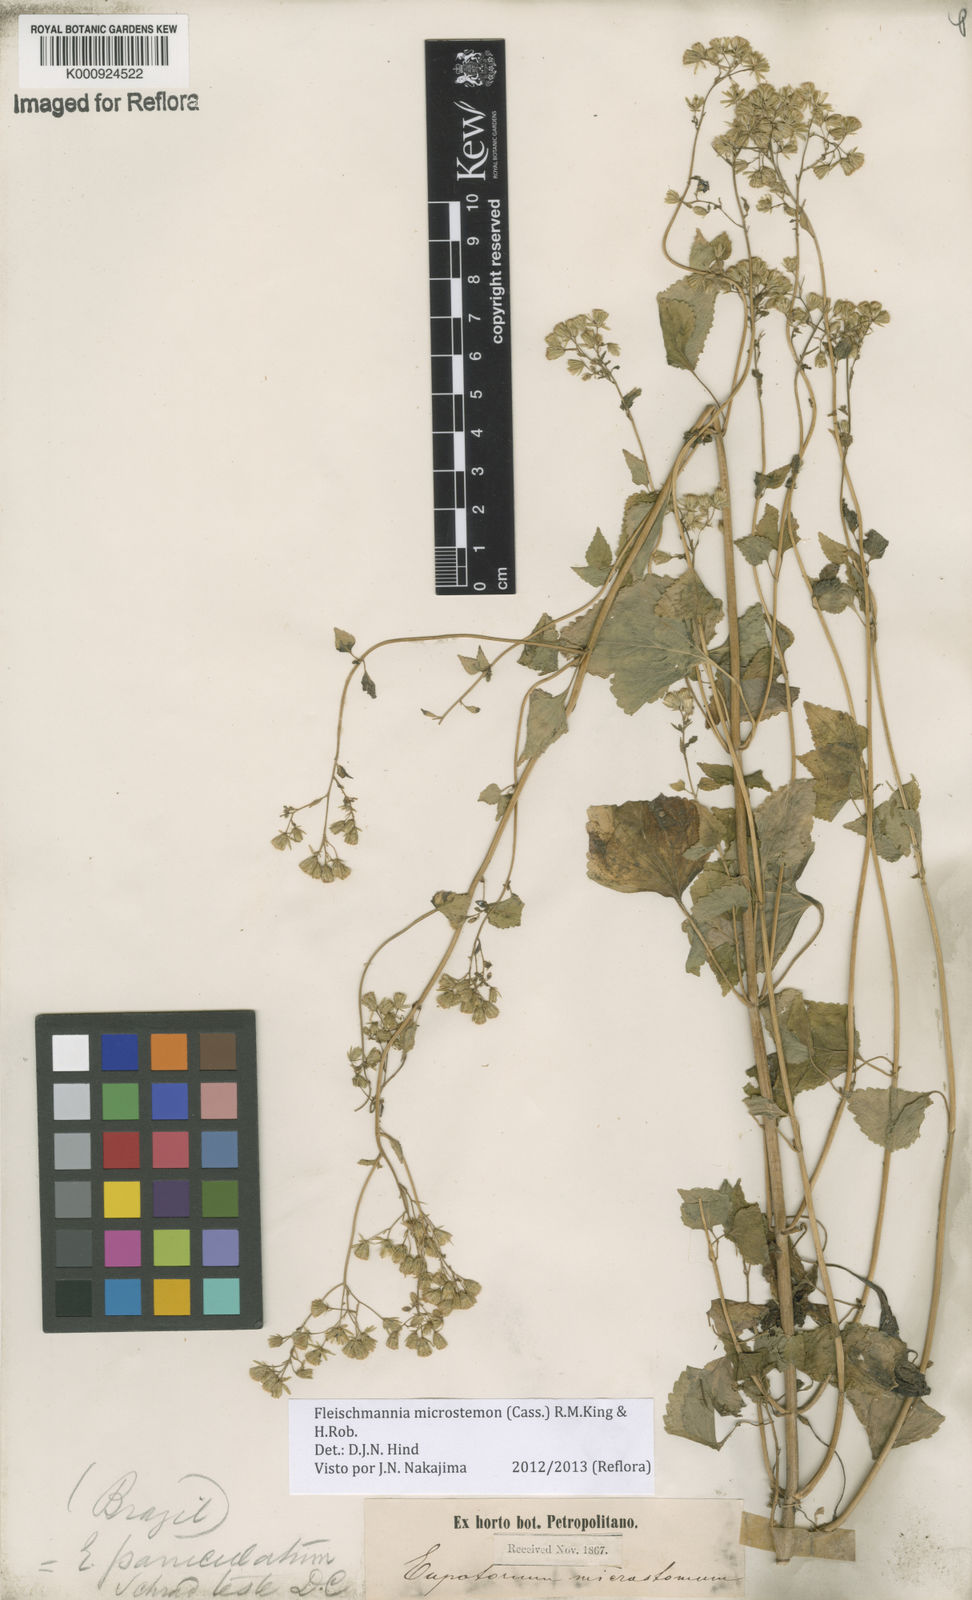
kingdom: Plantae
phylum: Tracheophyta
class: Magnoliopsida
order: Asterales
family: Asteraceae
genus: Fleischmannia
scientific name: Fleischmannia microstemon
